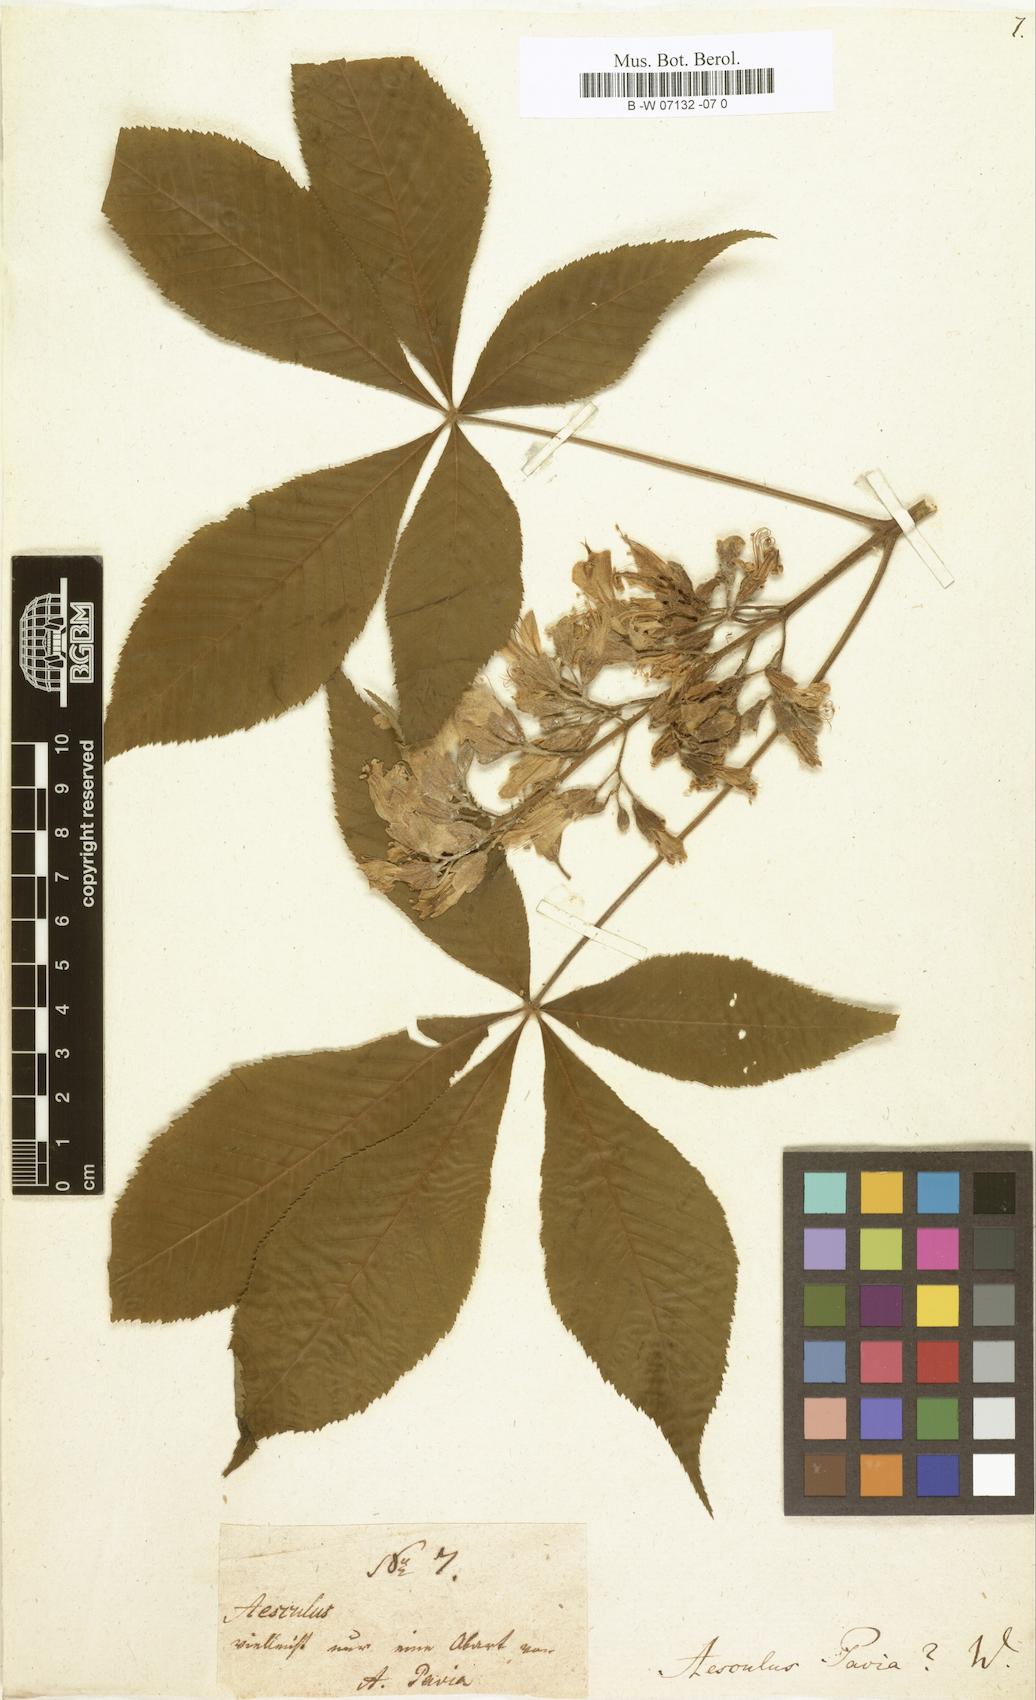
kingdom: Plantae
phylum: Tracheophyta
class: Magnoliopsida
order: Sapindales
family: Sapindaceae
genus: Aesculus
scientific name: Aesculus pavia
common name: Red buckeye
